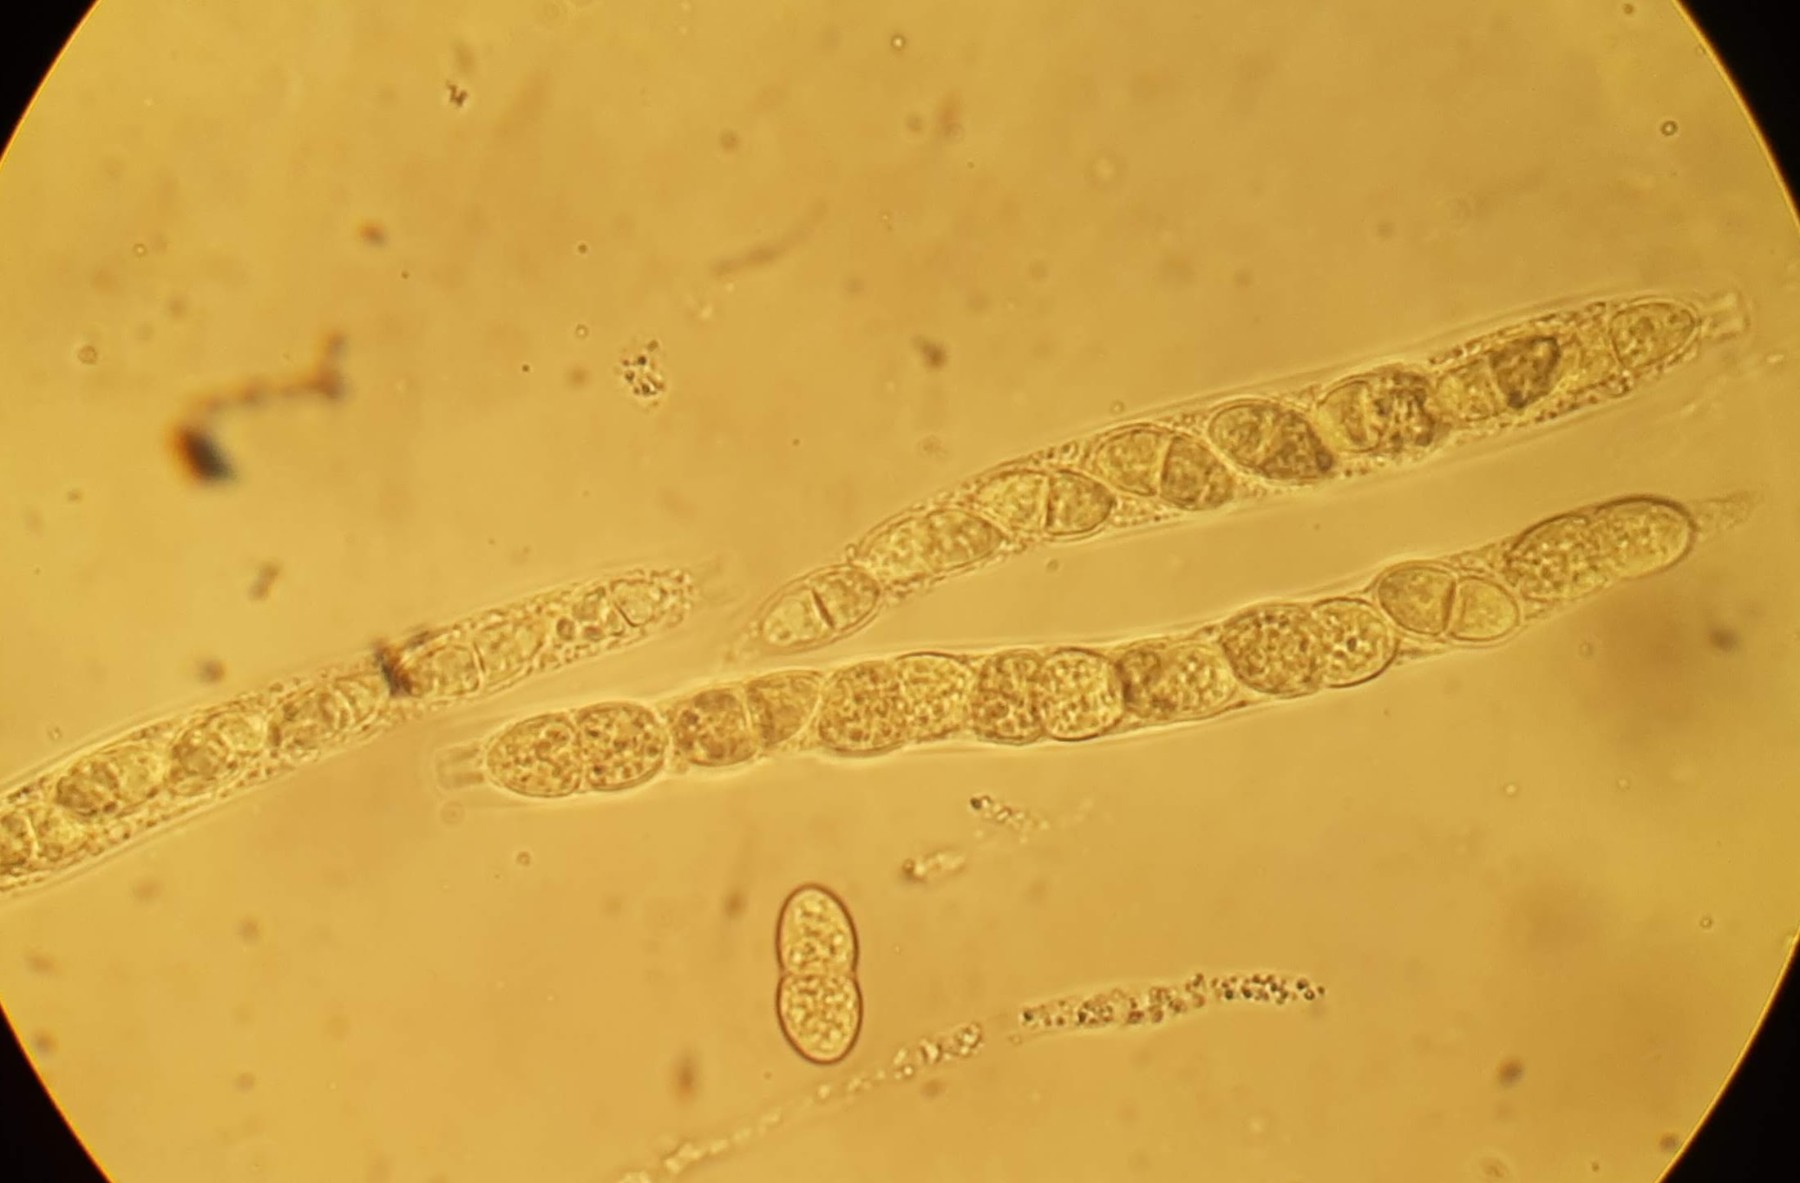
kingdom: Fungi
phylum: Ascomycota
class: Sordariomycetes
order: Diaporthales
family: Diaporthaceae
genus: Diaporthe
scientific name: Diaporthe inaequalis
